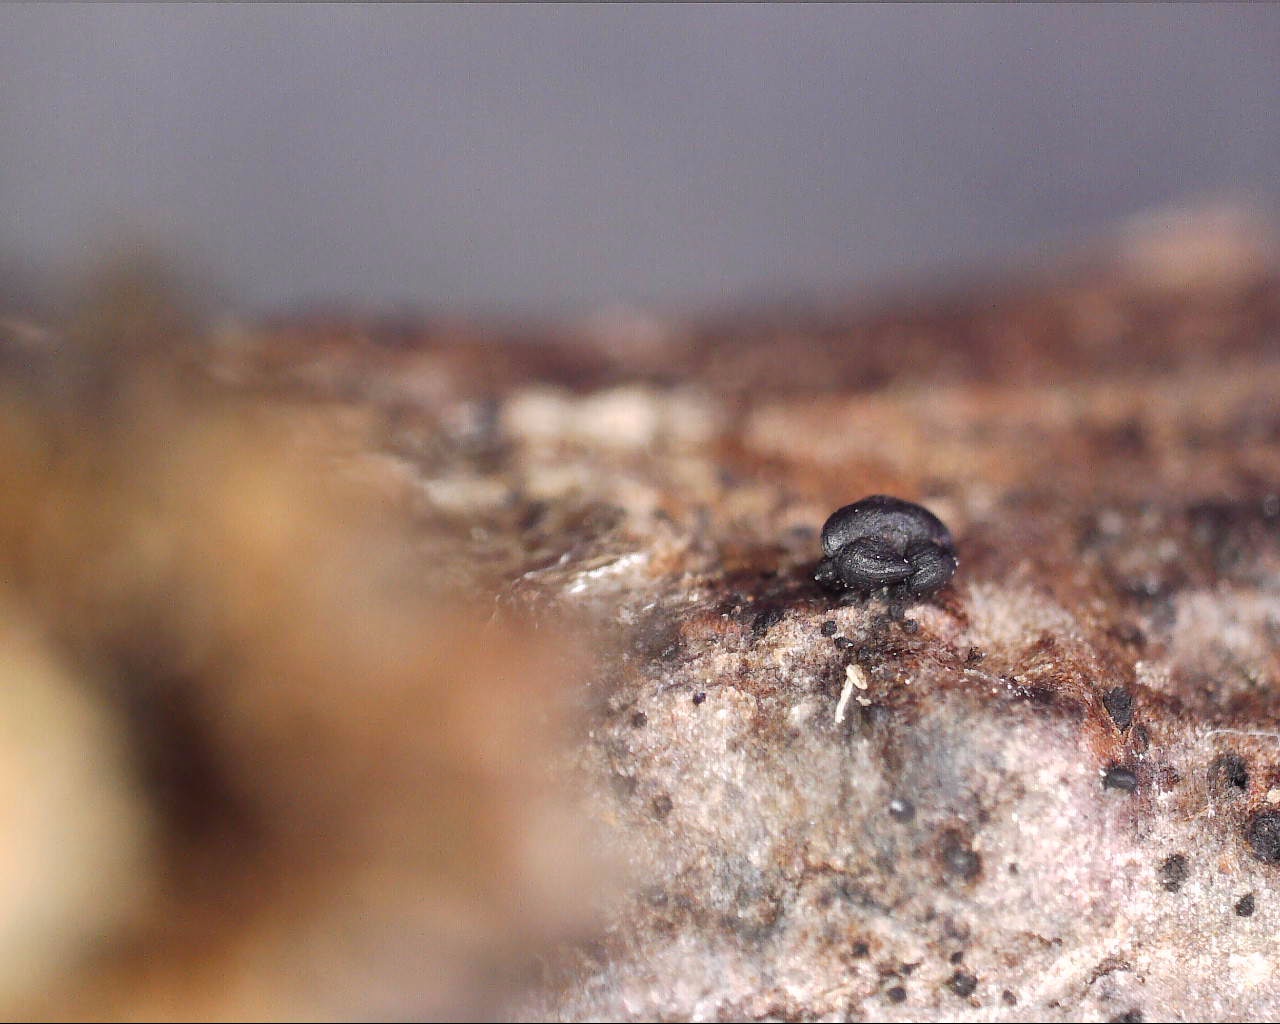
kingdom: Fungi
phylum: Ascomycota
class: Dothideomycetes
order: Mytilinidiales
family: Mytilinidiaceae
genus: Mytilinidion
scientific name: Mytilinidion rhenanum
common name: almindelig kulmusling
